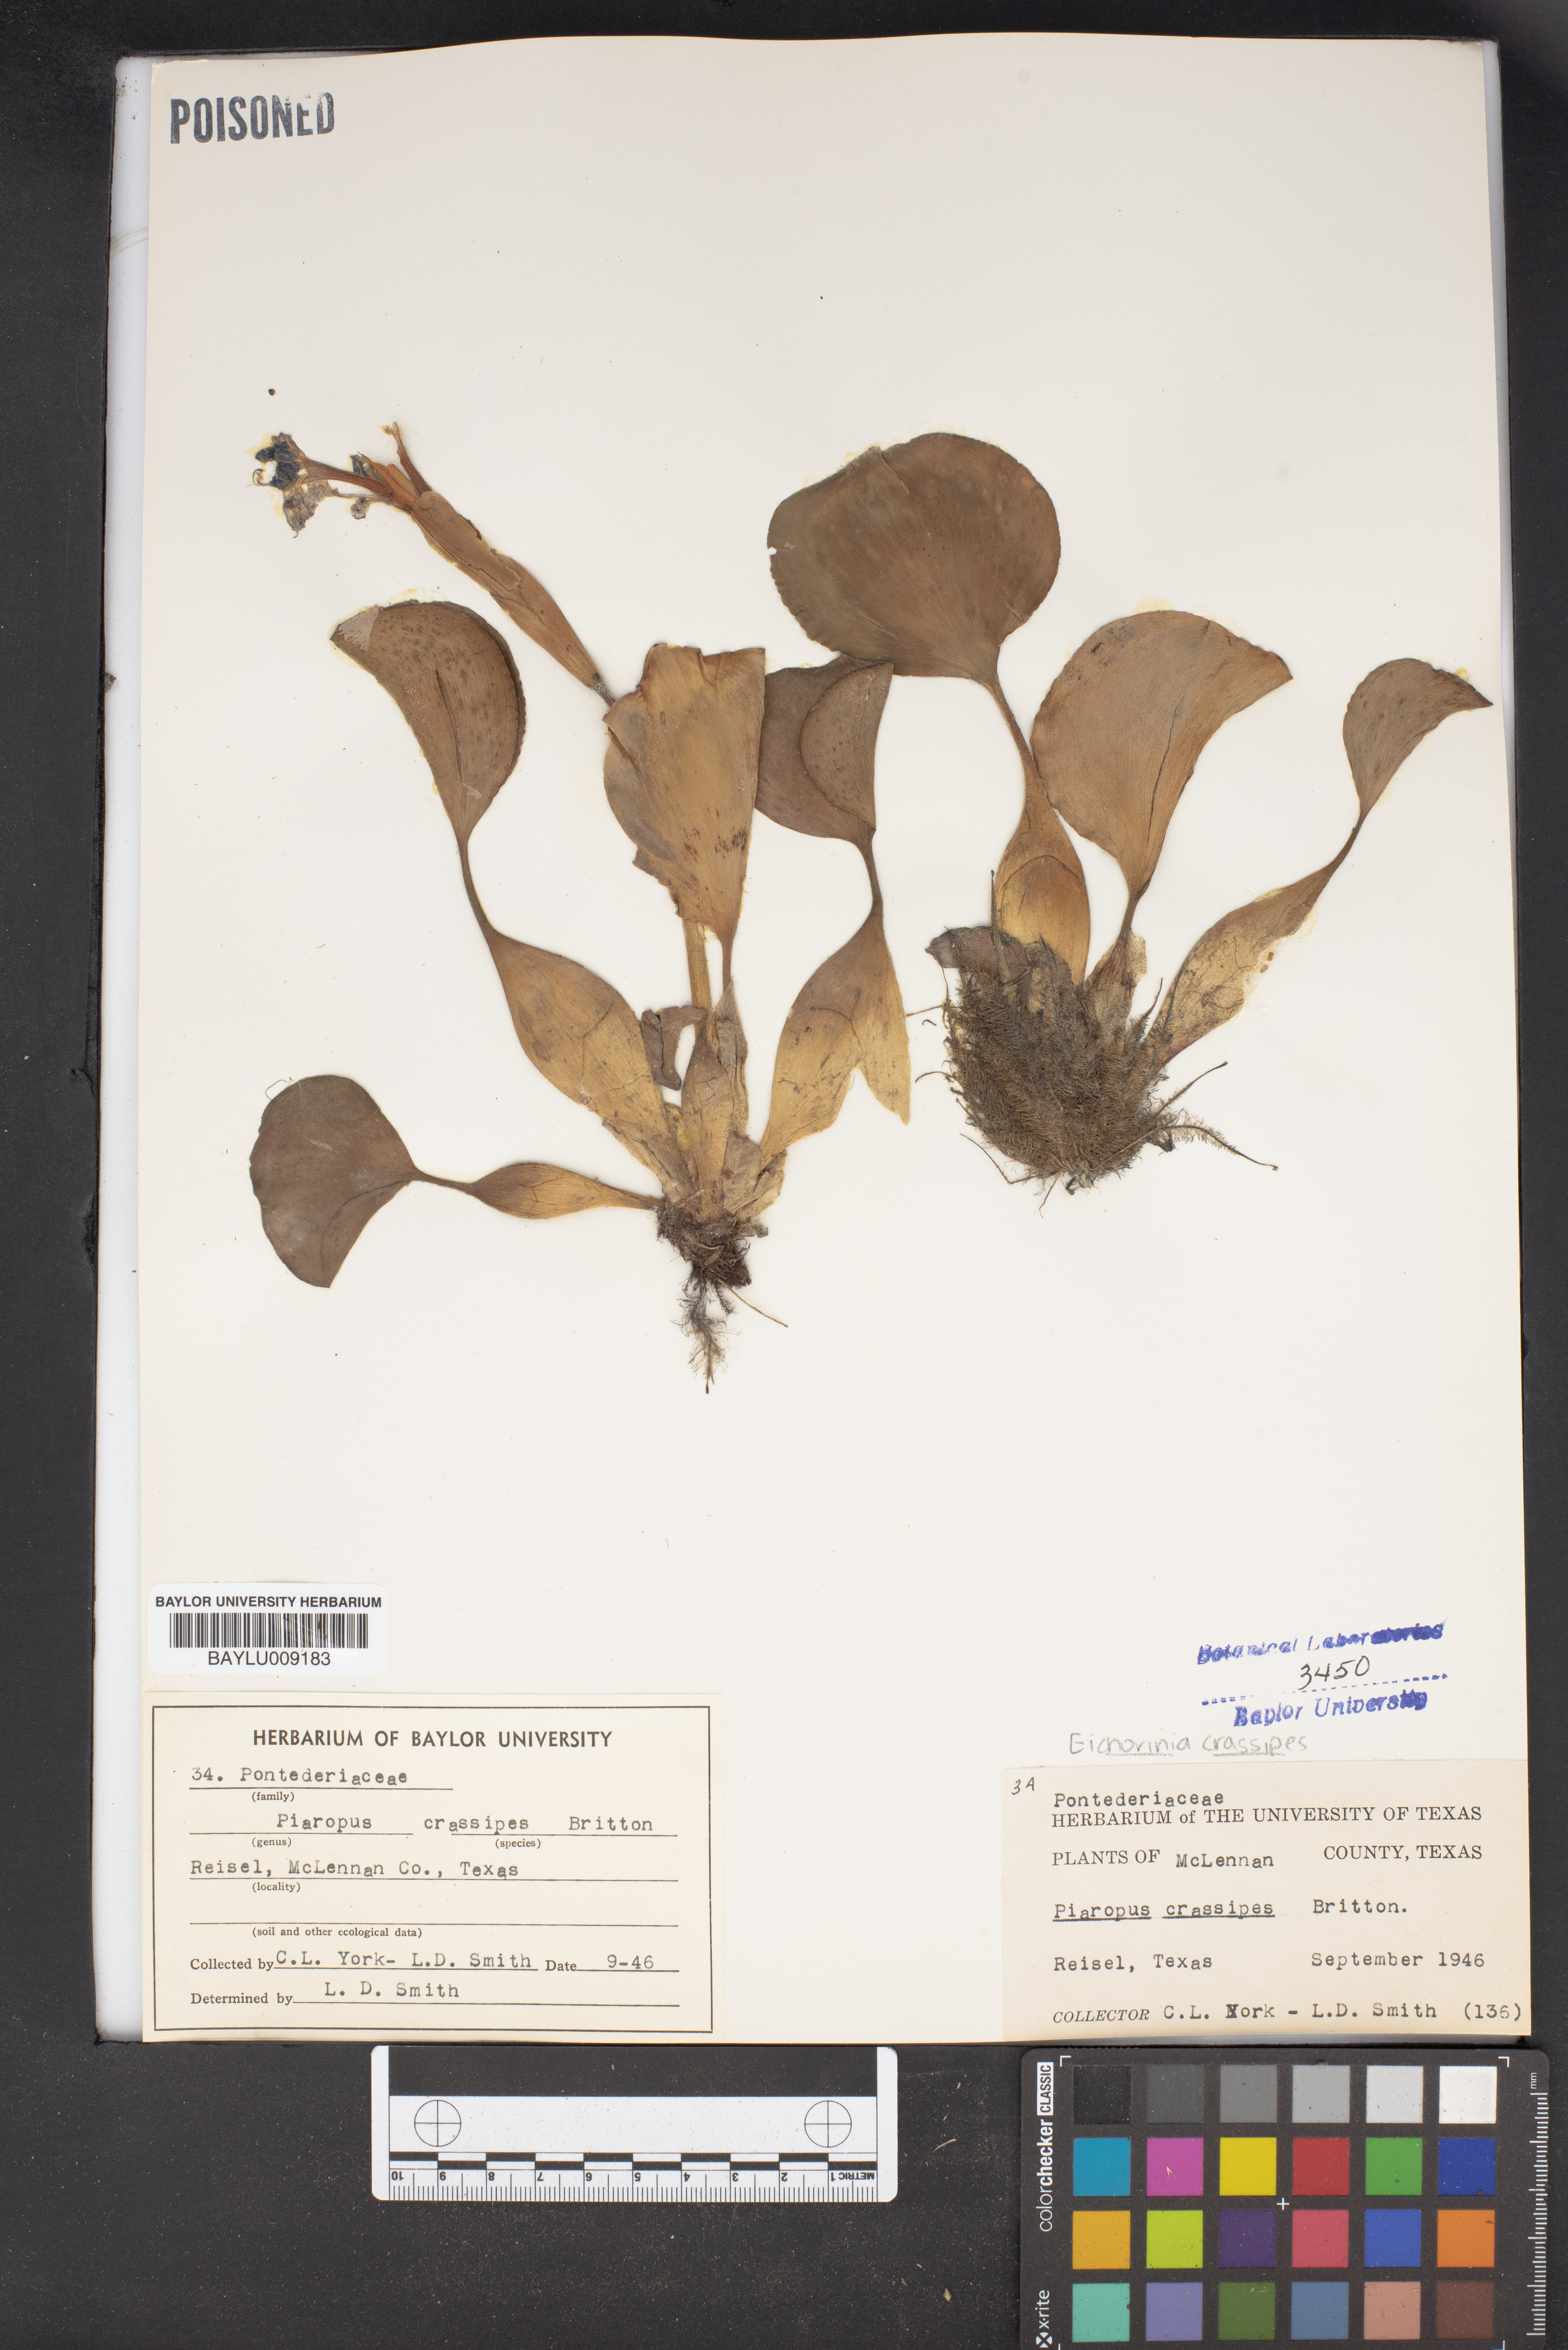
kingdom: Plantae
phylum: Tracheophyta
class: Liliopsida
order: Commelinales
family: Pontederiaceae
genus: Pontederia
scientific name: Pontederia crassipes
